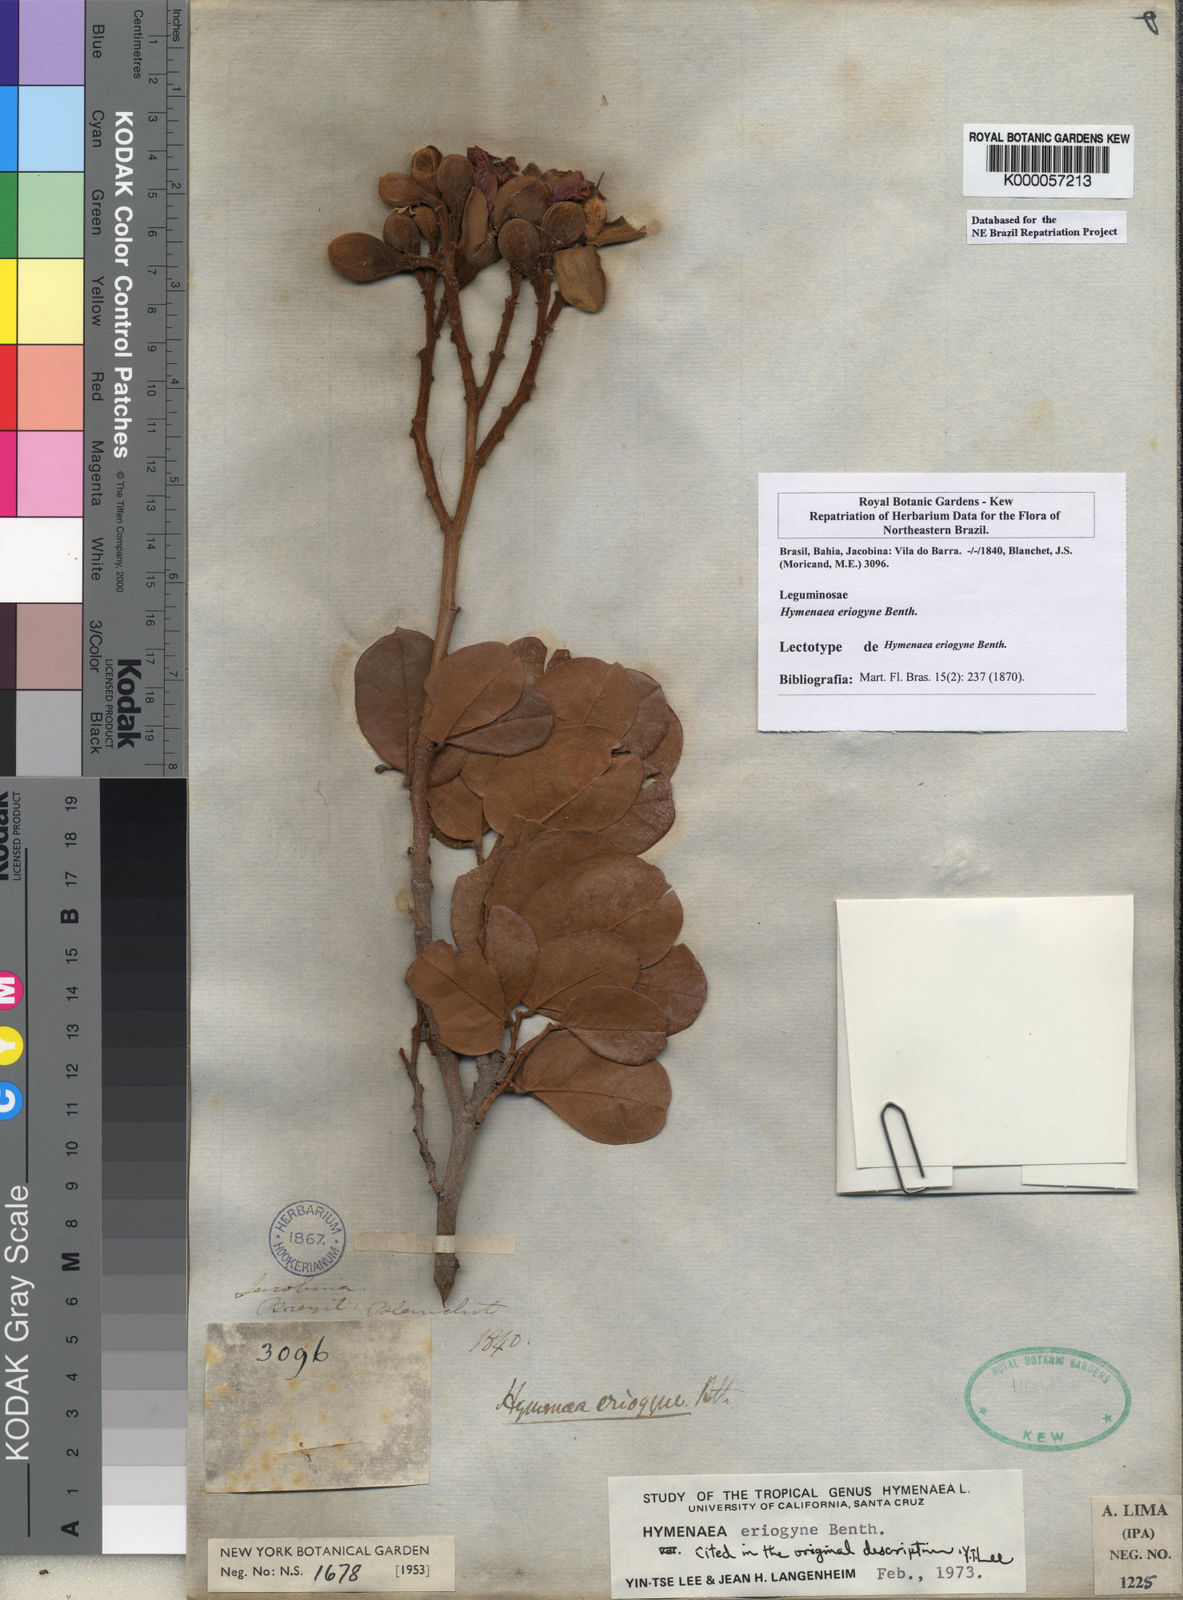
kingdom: Plantae
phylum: Tracheophyta
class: Magnoliopsida
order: Fabales
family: Fabaceae
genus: Hymenaea
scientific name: Hymenaea eriogyne
